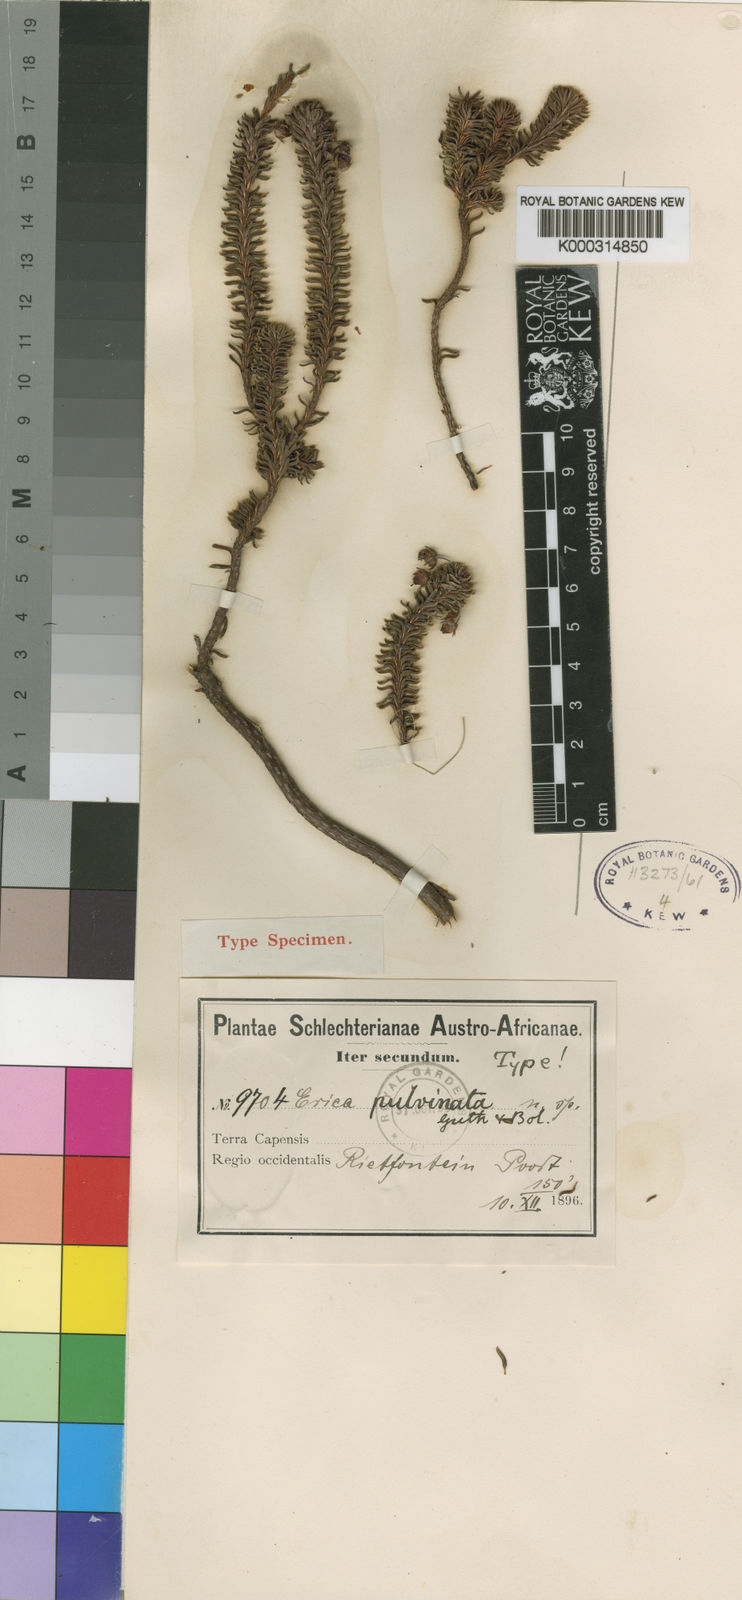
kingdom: Plantae
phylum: Tracheophyta
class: Magnoliopsida
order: Ericales
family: Ericaceae
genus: Erica
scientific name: Erica pulvinata
